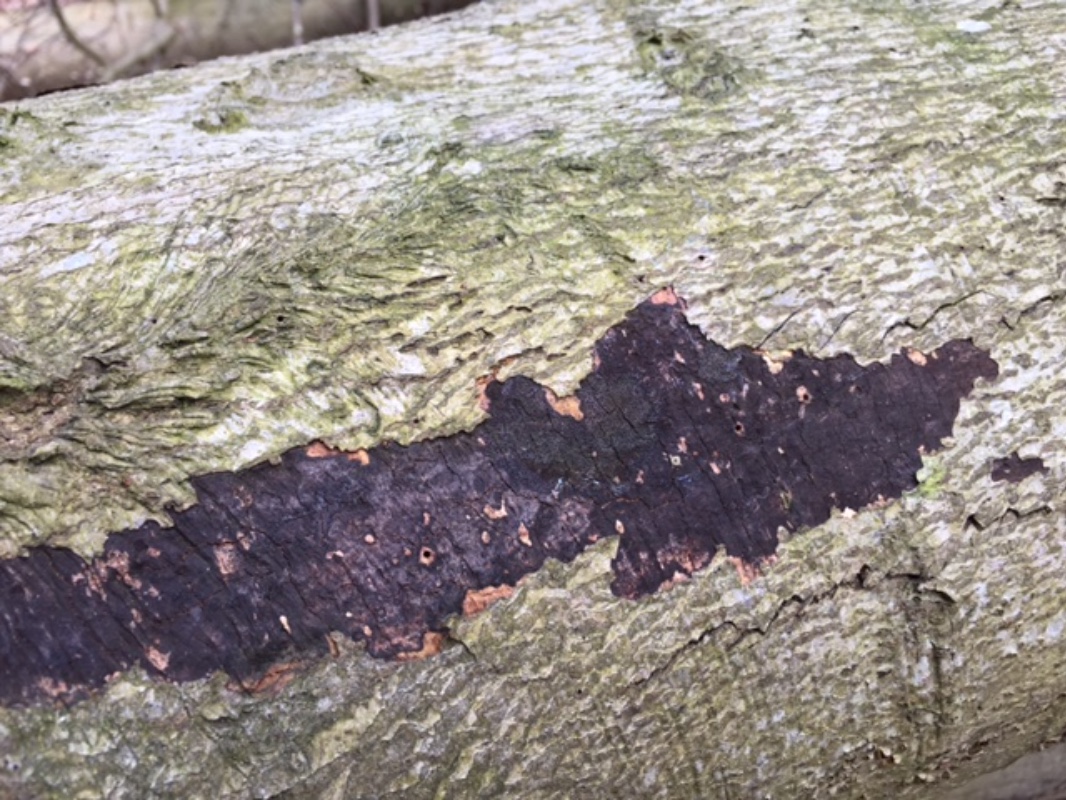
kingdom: Fungi
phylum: Ascomycota
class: Sordariomycetes
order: Xylariales
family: Diatrypaceae
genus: Eutypa
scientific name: Eutypa spinosa
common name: grov kulskorpe
